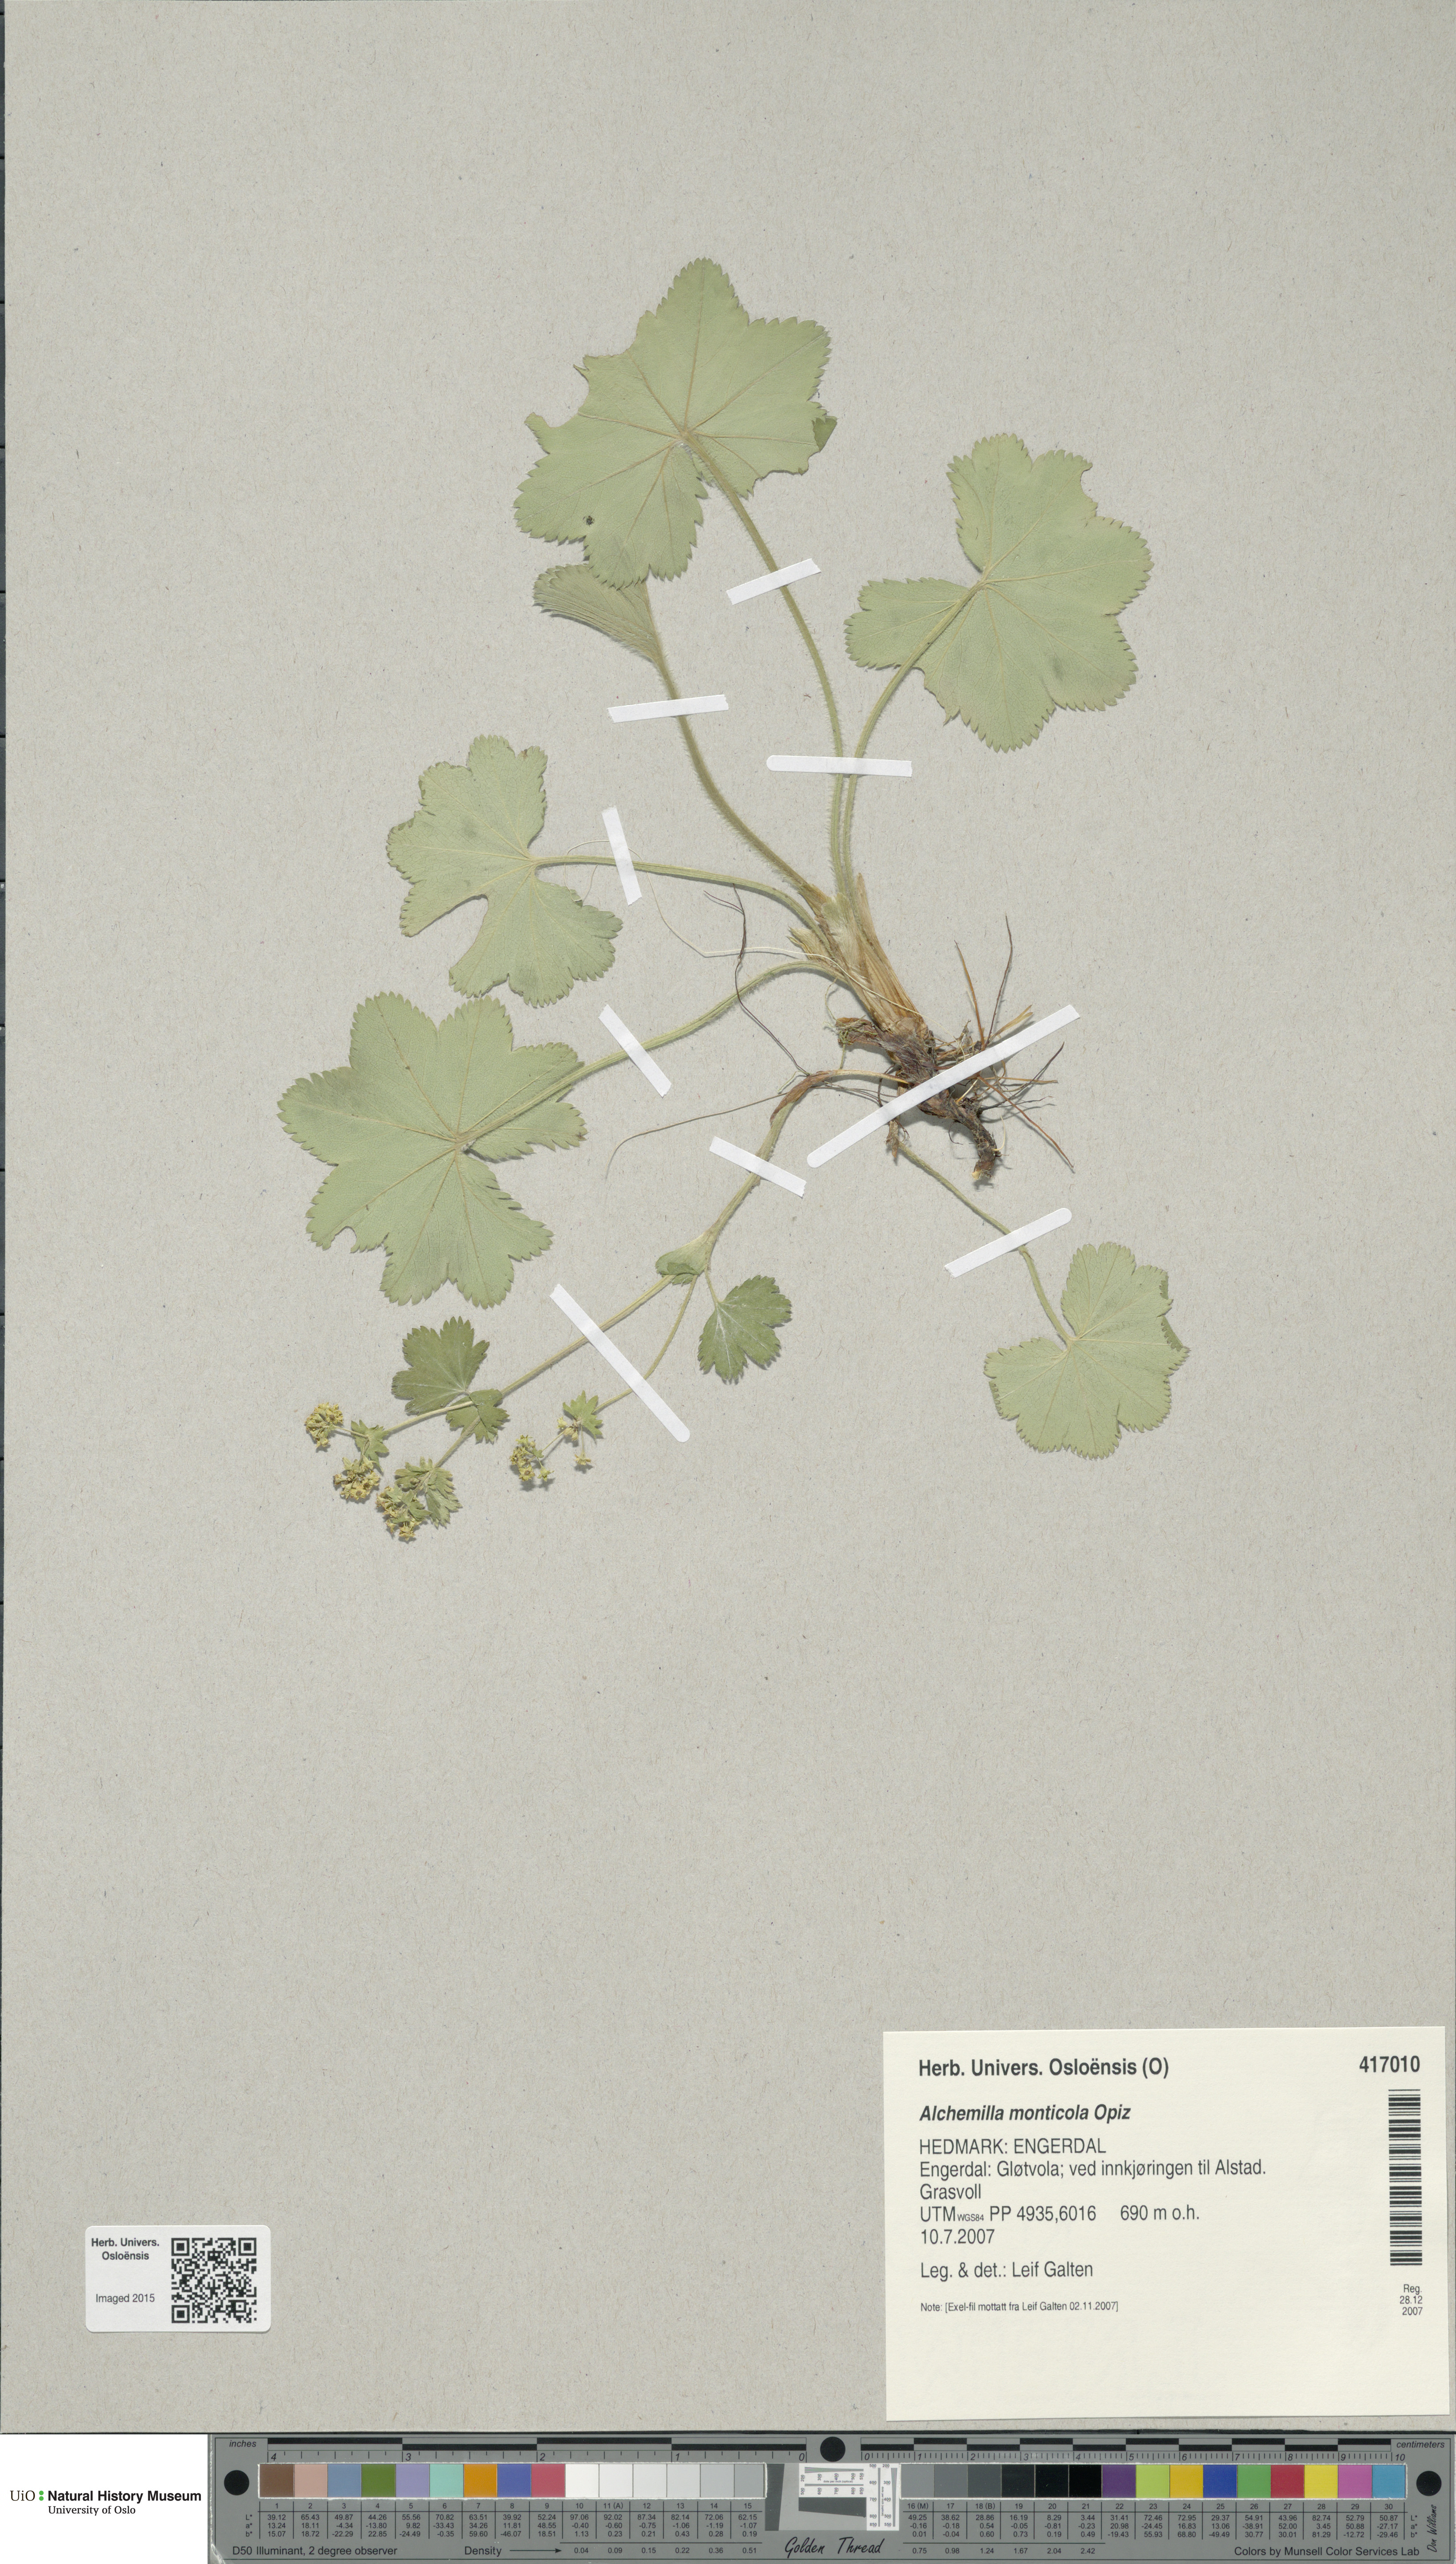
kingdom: Plantae
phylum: Tracheophyta
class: Magnoliopsida
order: Rosales
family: Rosaceae
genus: Alchemilla
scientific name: Alchemilla monticola
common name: Hairy lady's mantle
